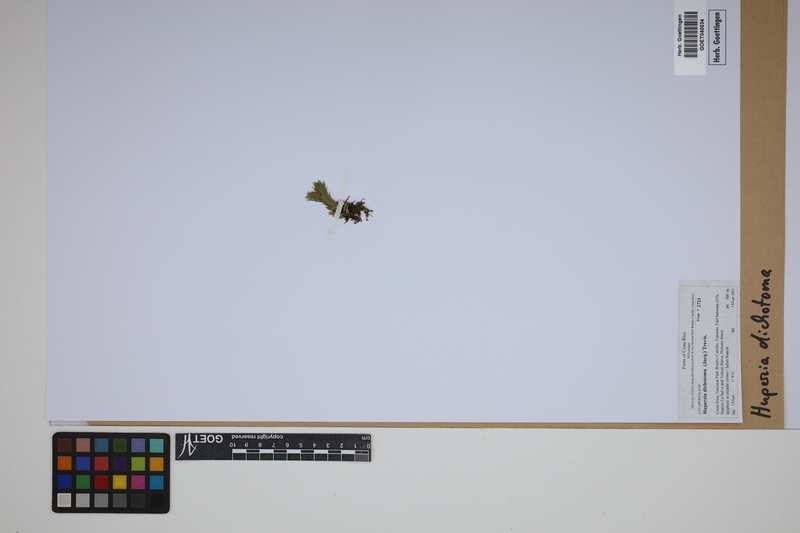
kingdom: Plantae
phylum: Tracheophyta
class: Lycopodiopsida
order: Lycopodiales
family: Lycopodiaceae
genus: Phlegmariurus
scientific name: Phlegmariurus dichotomus
